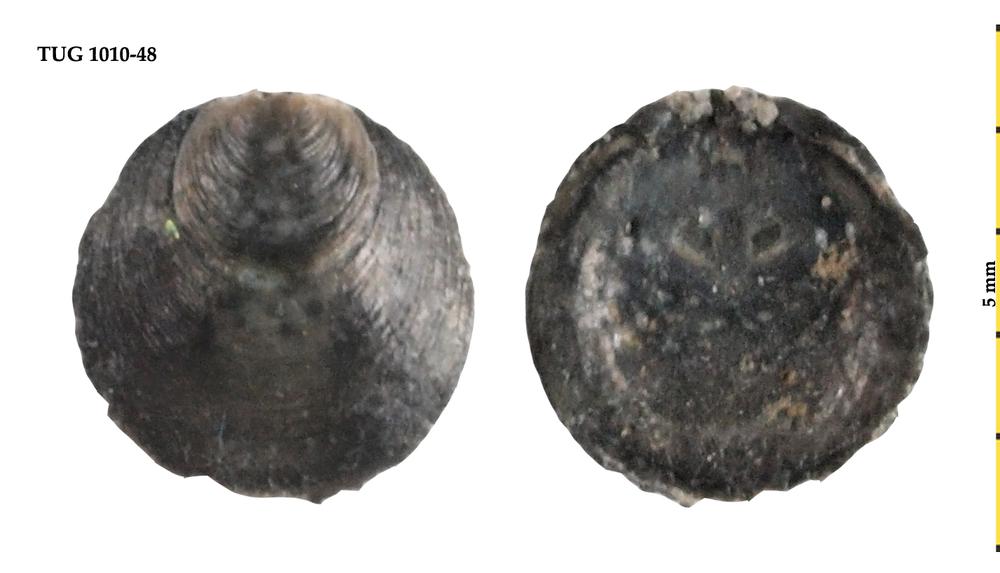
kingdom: Animalia
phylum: Brachiopoda
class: Lingulata
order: Lingulida
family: Obolidae
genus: Schmidtites
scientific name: Schmidtites Schmidtia celata
